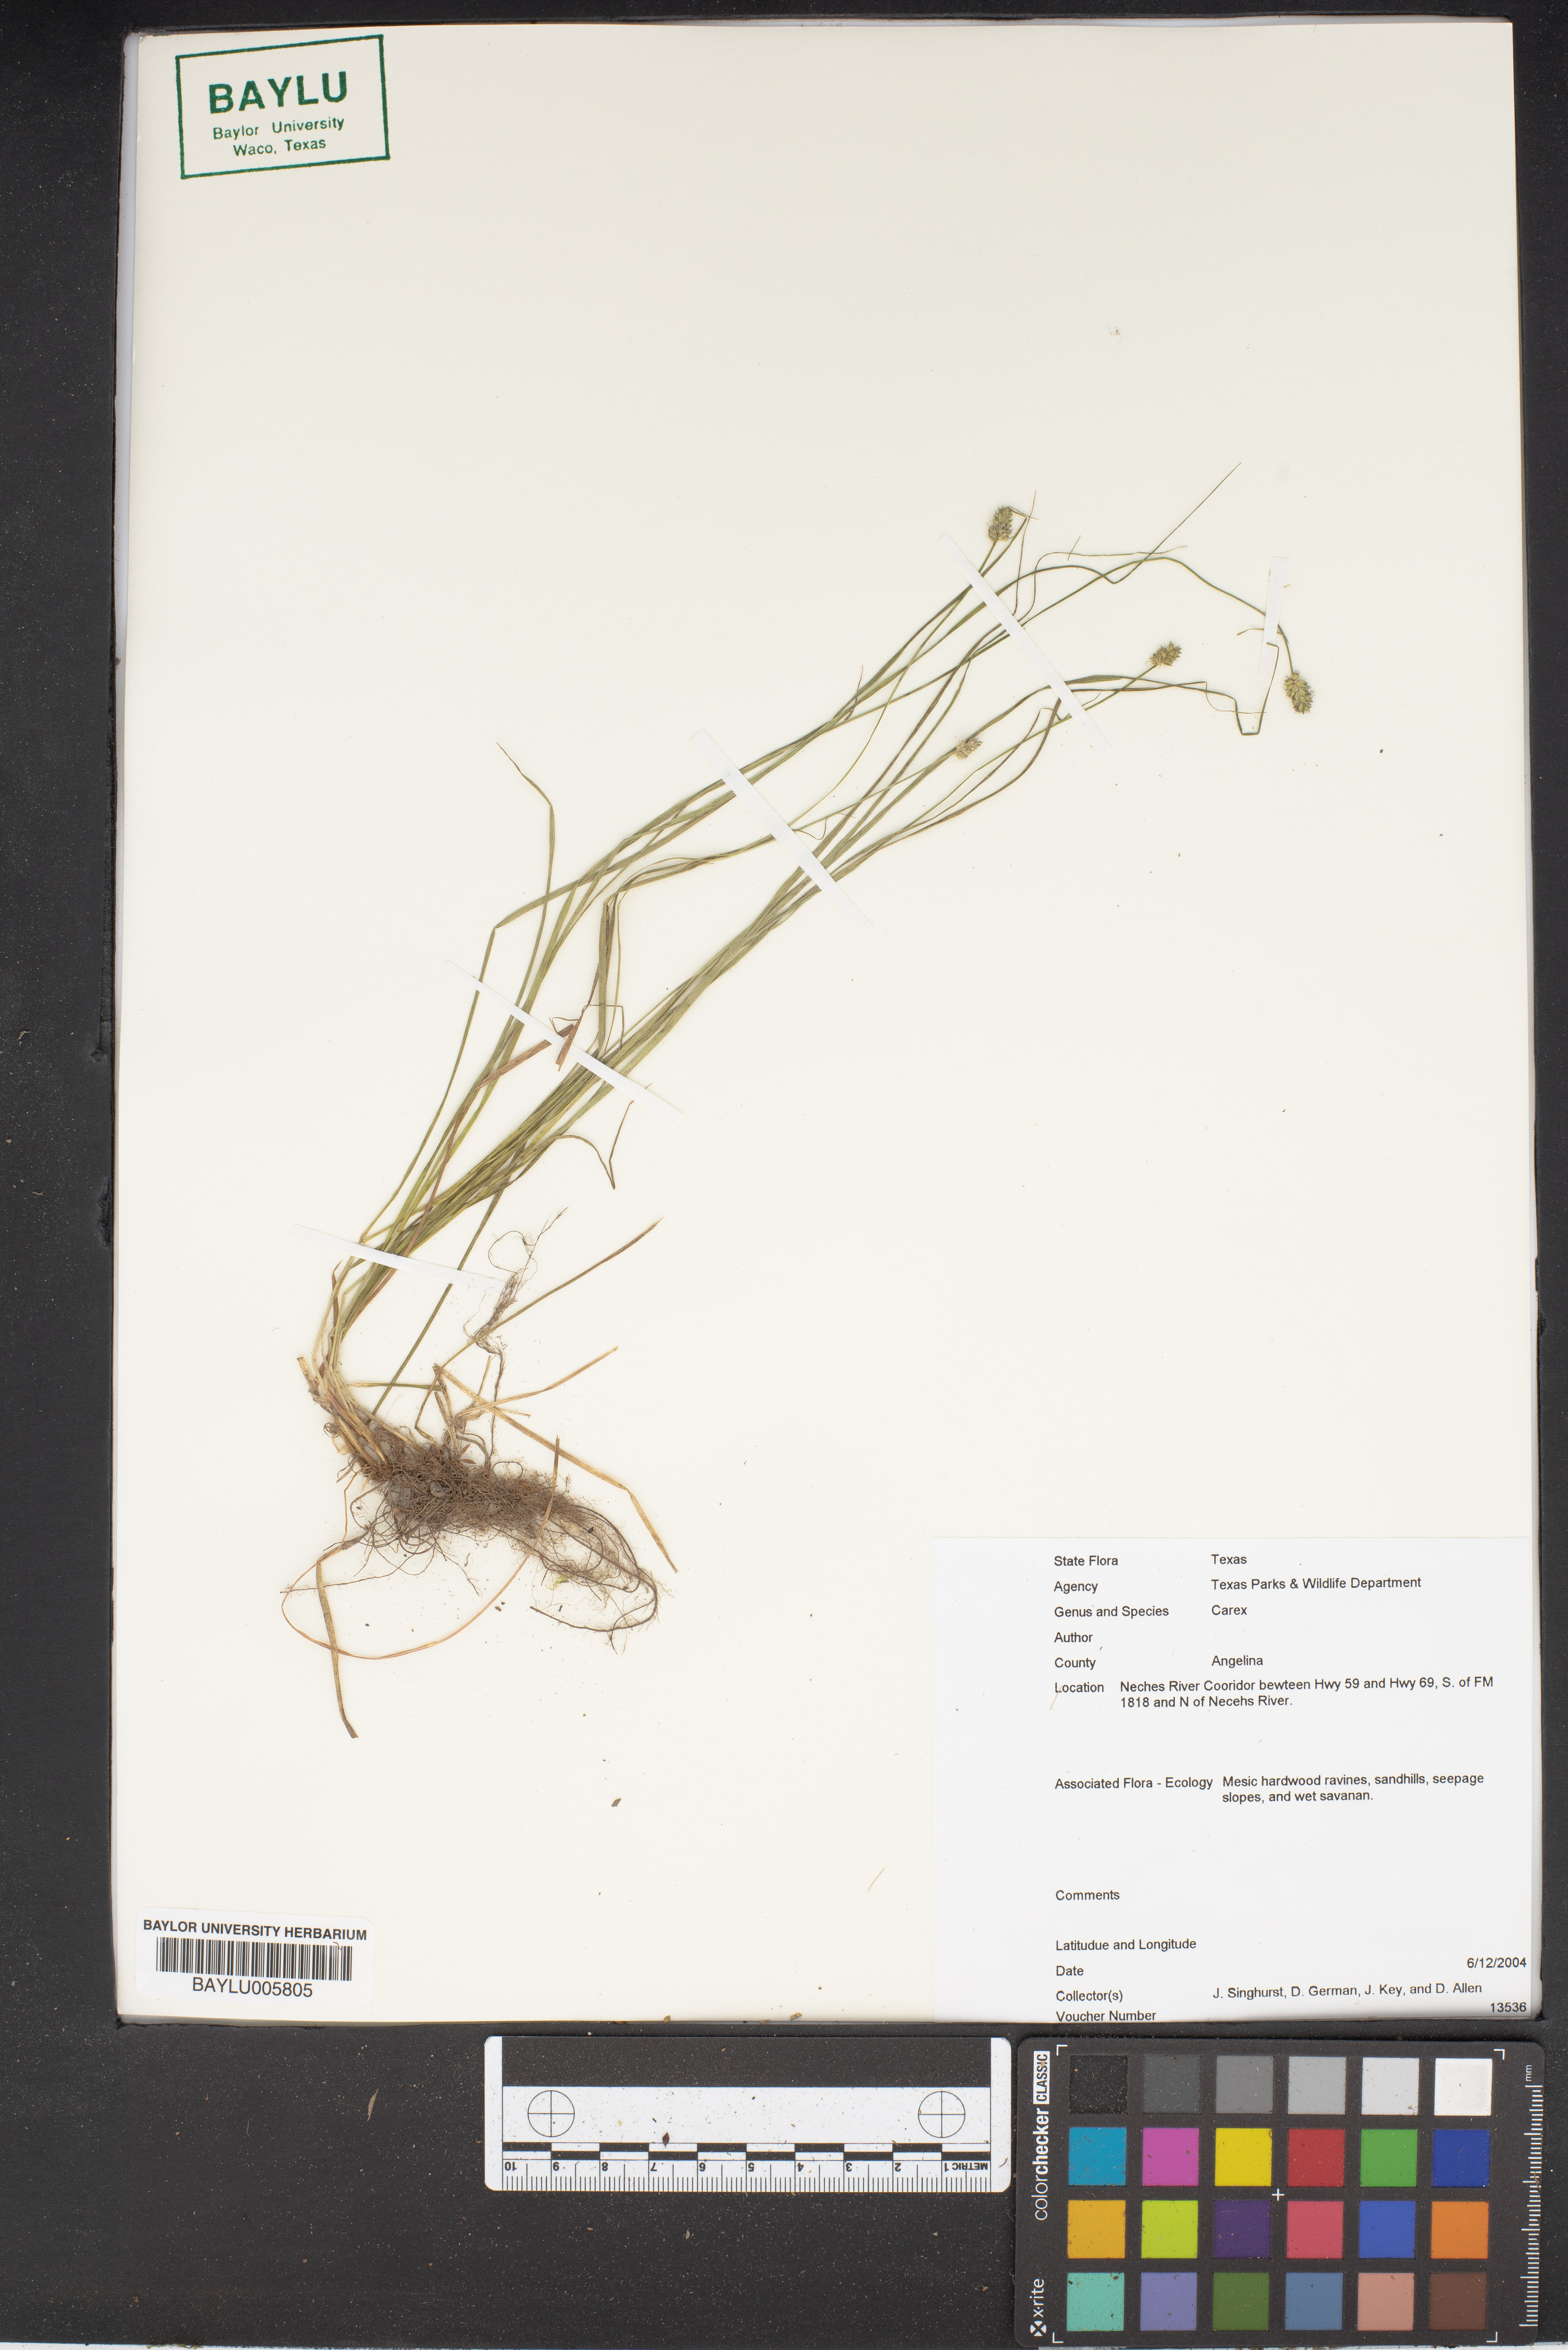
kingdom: Plantae
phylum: Tracheophyta
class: Liliopsida
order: Poales
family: Cyperaceae
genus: Carex
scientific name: Carex
